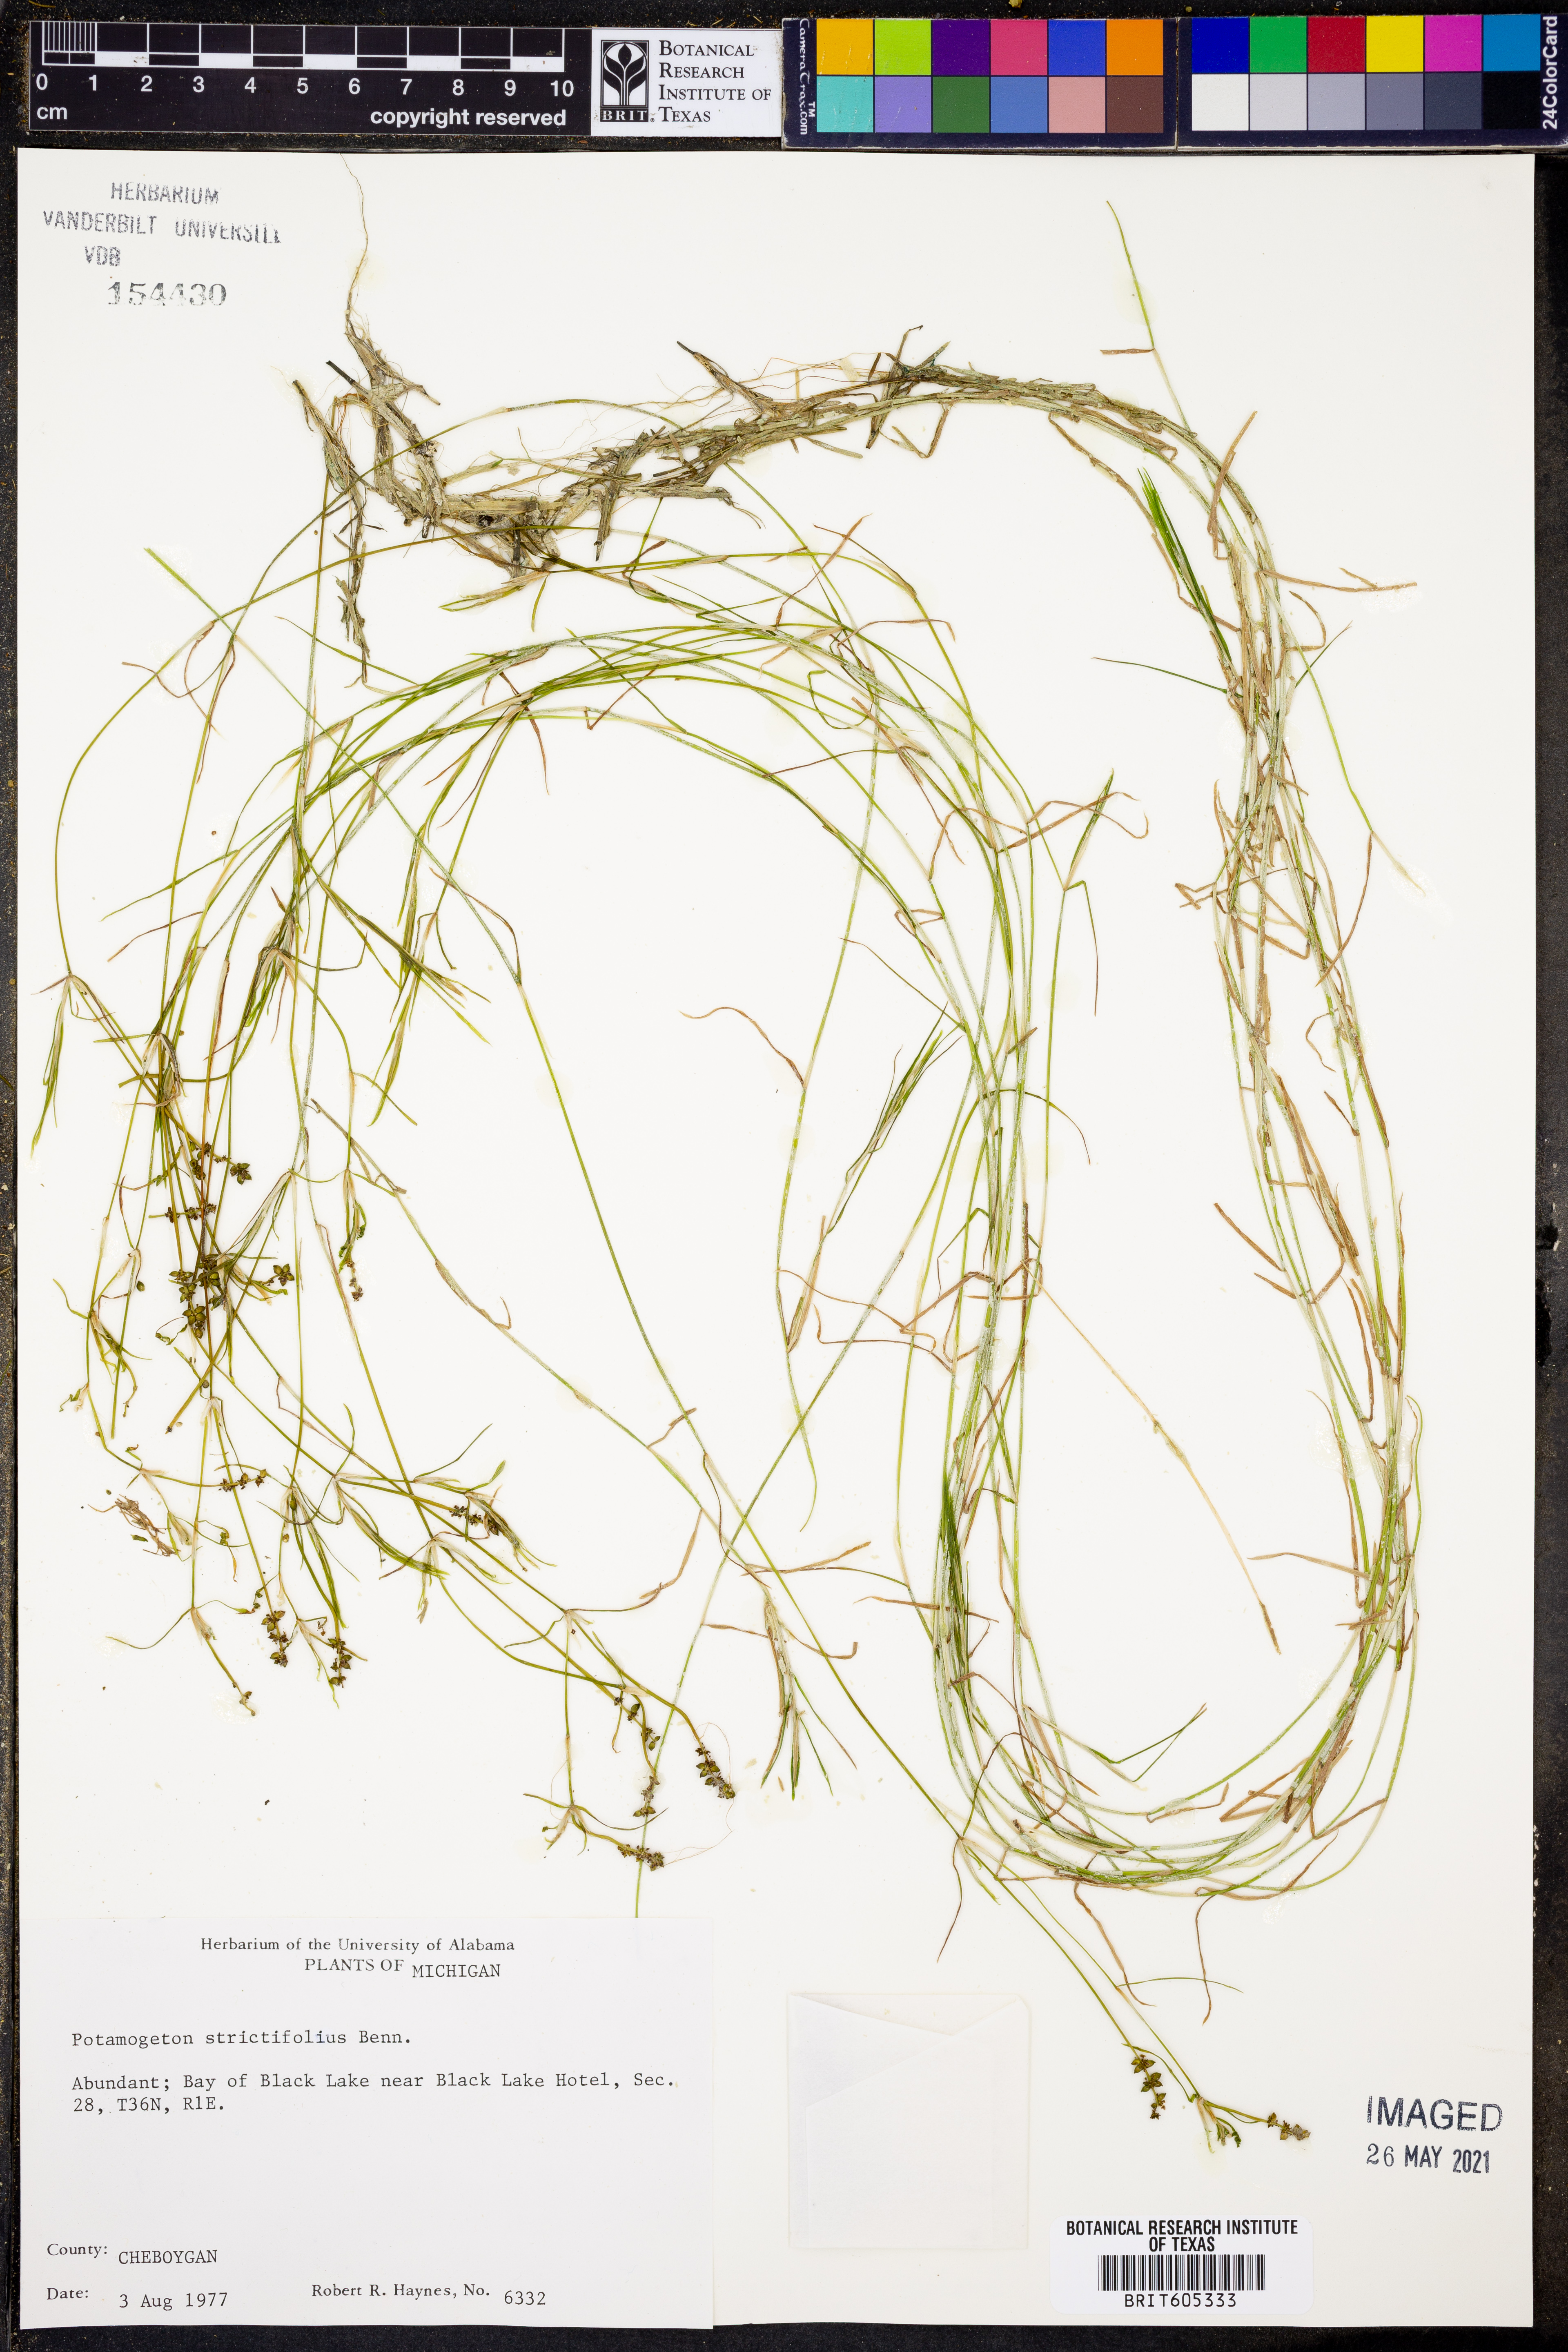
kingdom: Plantae
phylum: Tracheophyta
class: Liliopsida
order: Alismatales
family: Potamogetonaceae
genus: Potamogeton
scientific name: Potamogeton strictifolius
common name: Linear-leaved pondweed
